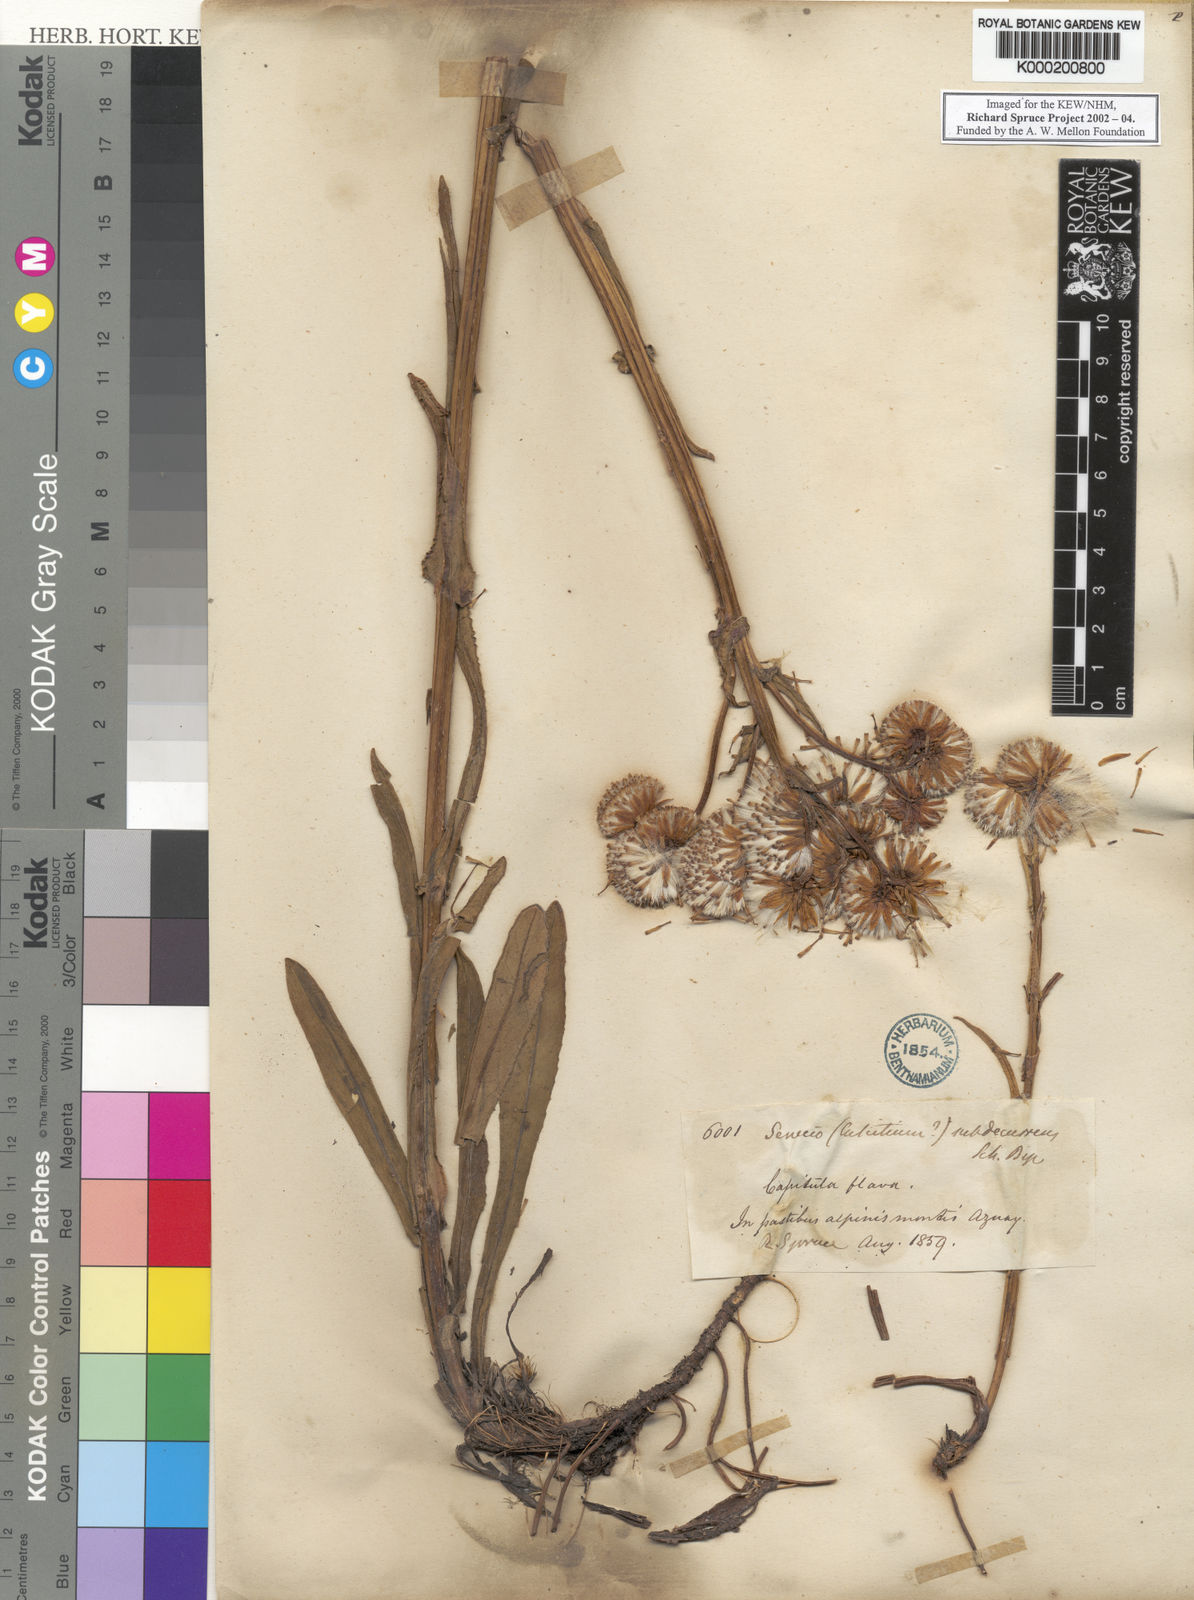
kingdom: Plantae
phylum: Tracheophyta
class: Magnoliopsida
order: Asterales
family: Asteraceae
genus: Senecio
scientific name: Senecio
